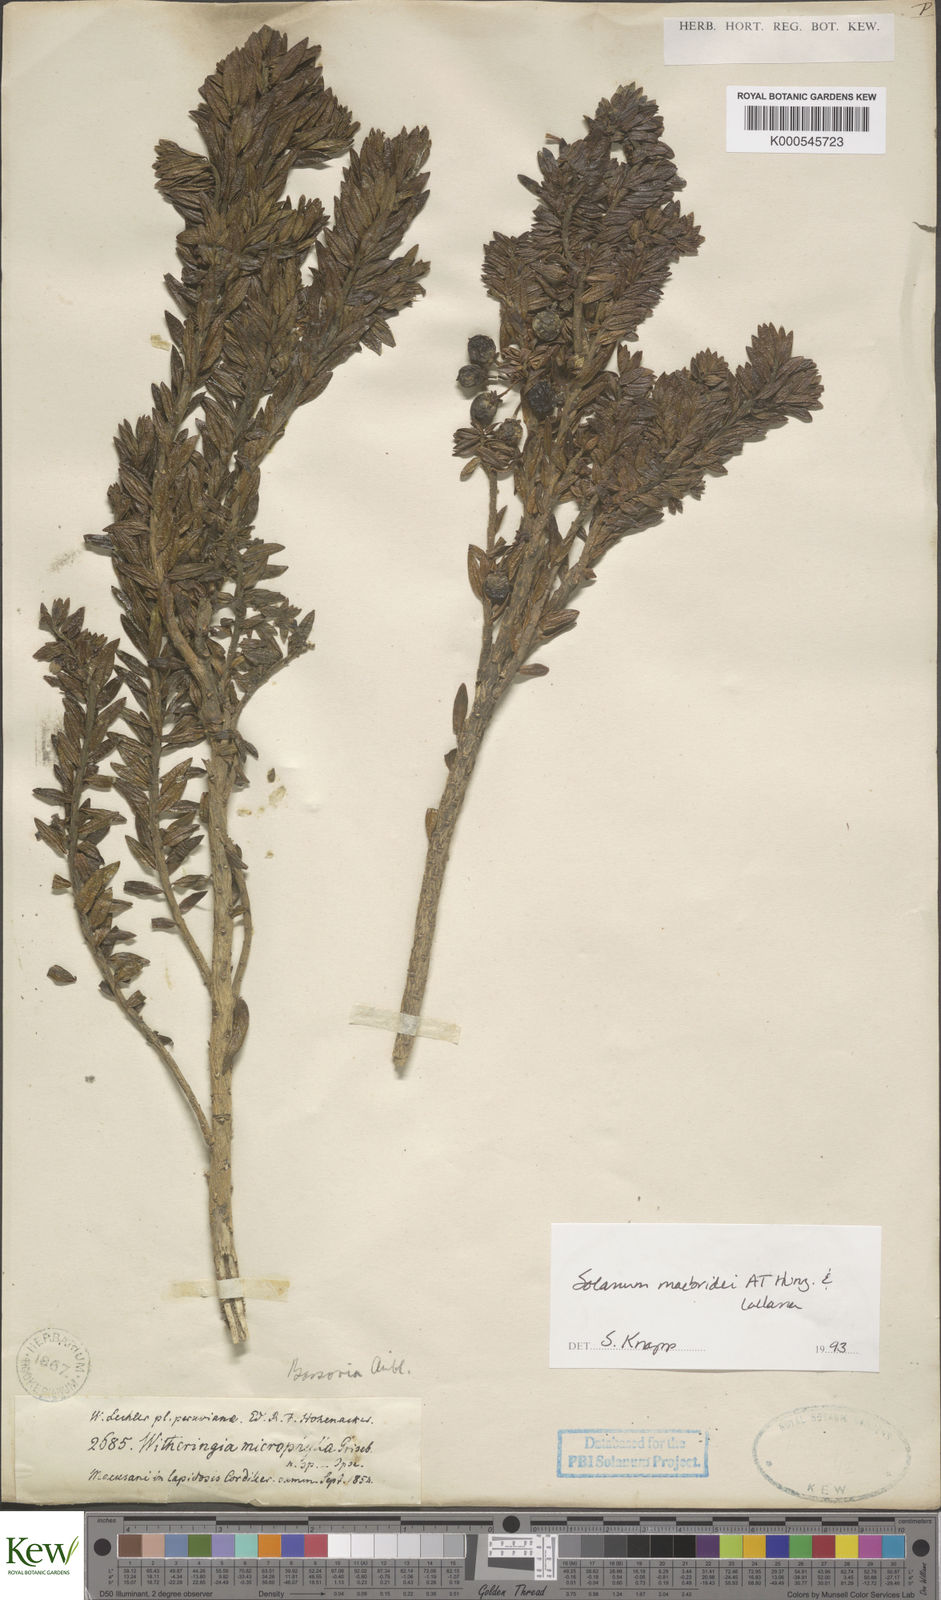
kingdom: Plantae
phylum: Tracheophyta
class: Magnoliopsida
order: Solanales
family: Solanaceae
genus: Solanum
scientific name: Solanum macbridei
